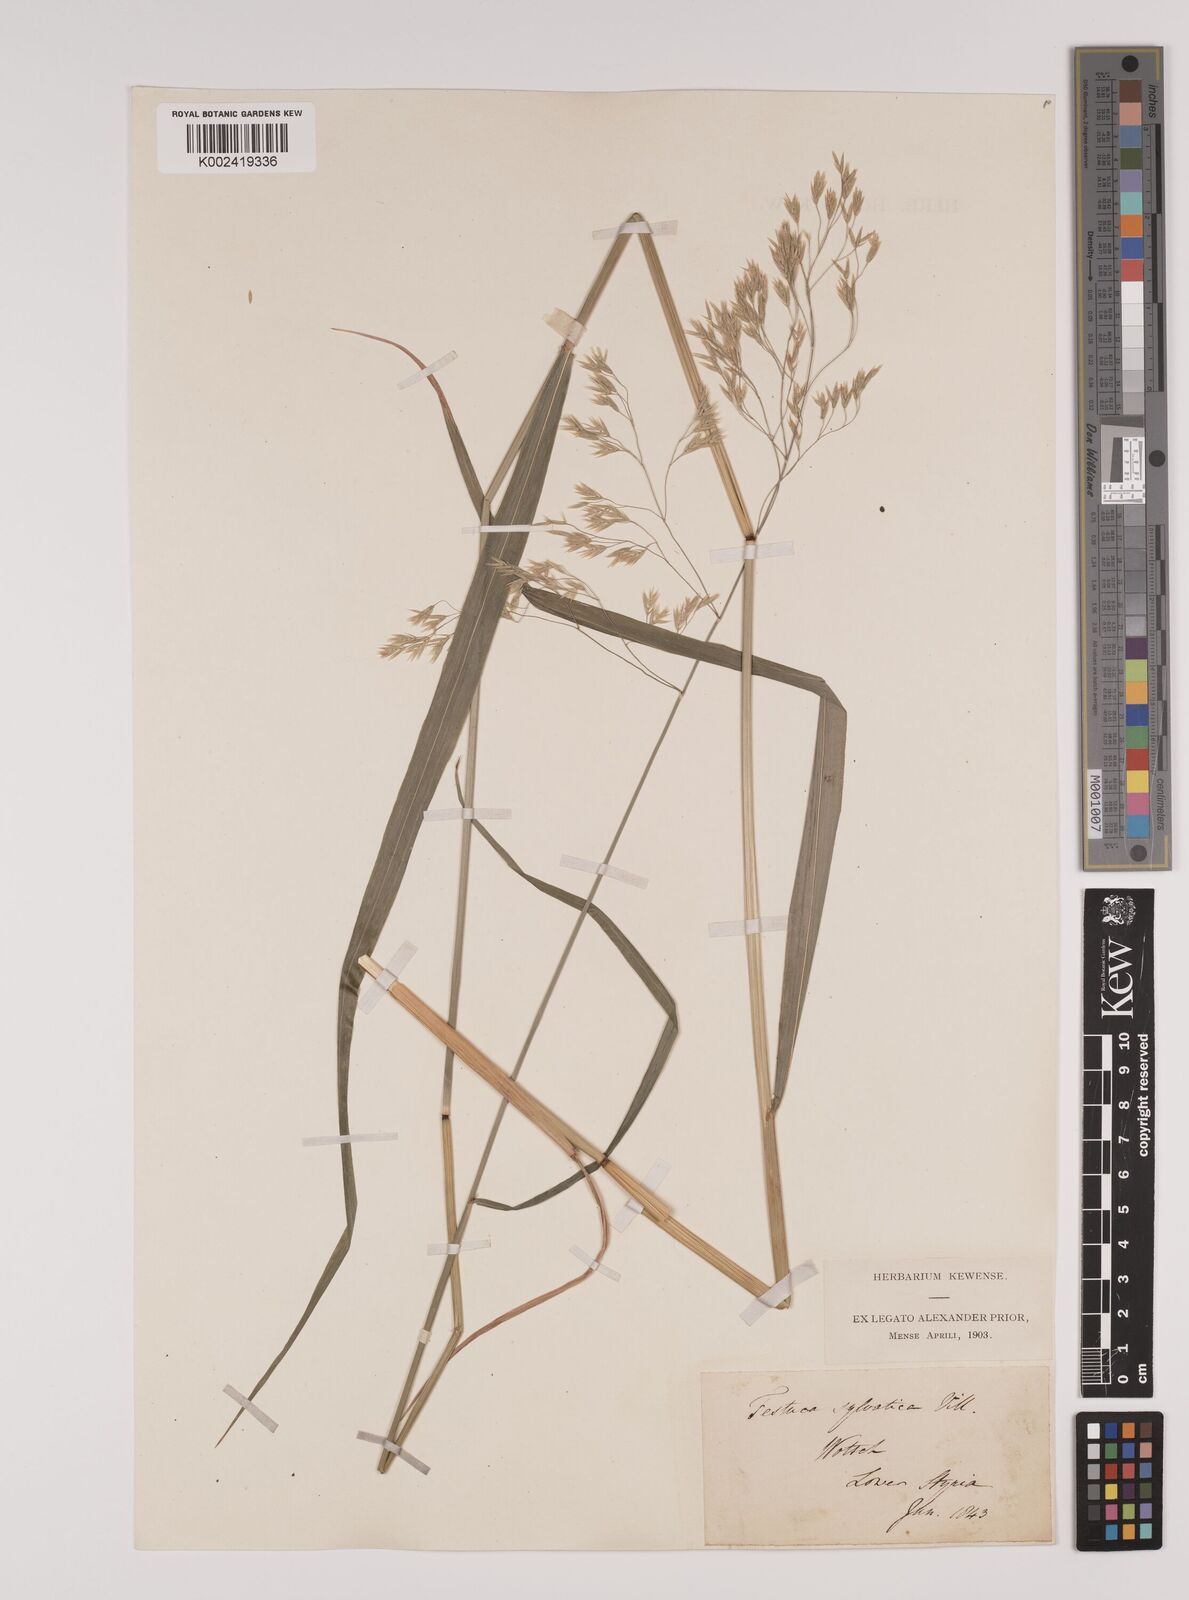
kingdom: Plantae
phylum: Tracheophyta
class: Liliopsida
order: Poales
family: Poaceae
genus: Lolium
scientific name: Lolium giganteum
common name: Giant fescue
